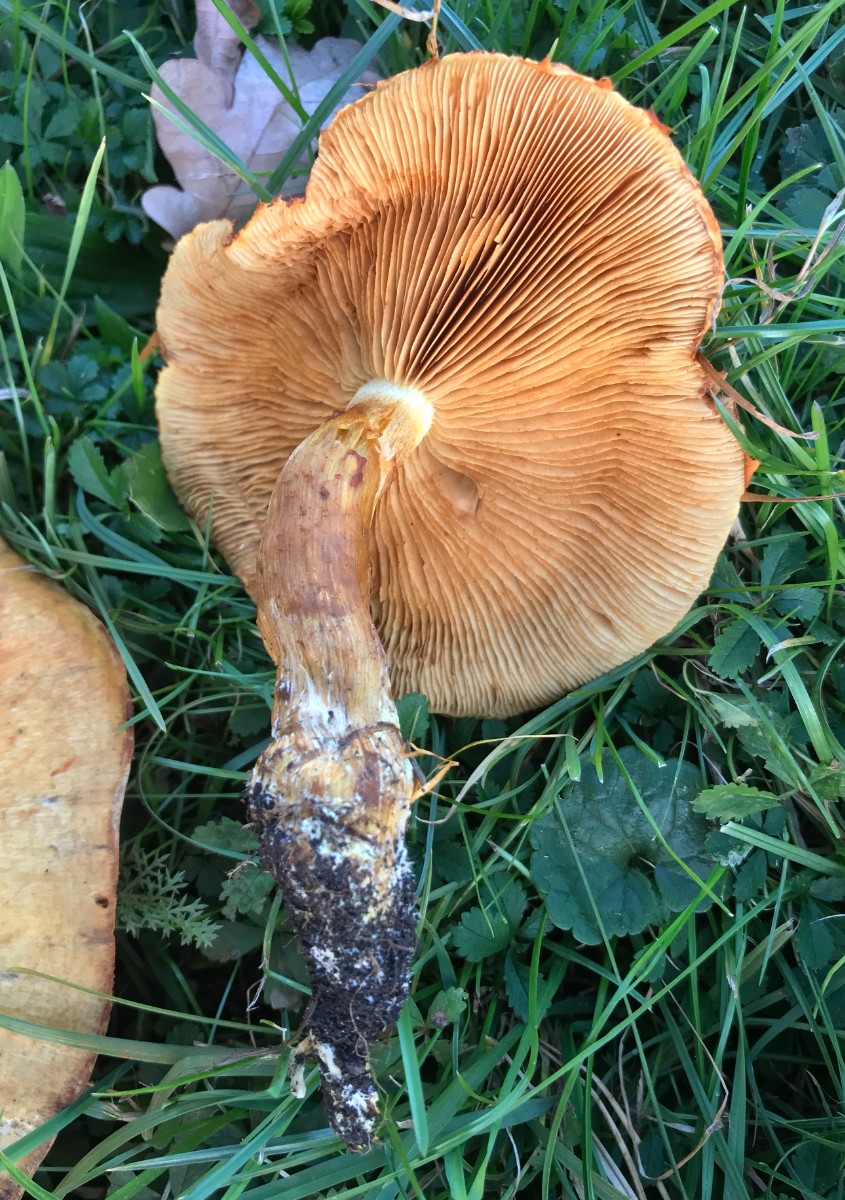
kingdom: Fungi
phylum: Basidiomycota
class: Agaricomycetes
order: Agaricales
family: Hymenogastraceae
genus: Gymnopilus
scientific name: Gymnopilus spectabilis
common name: fibret flammehat
